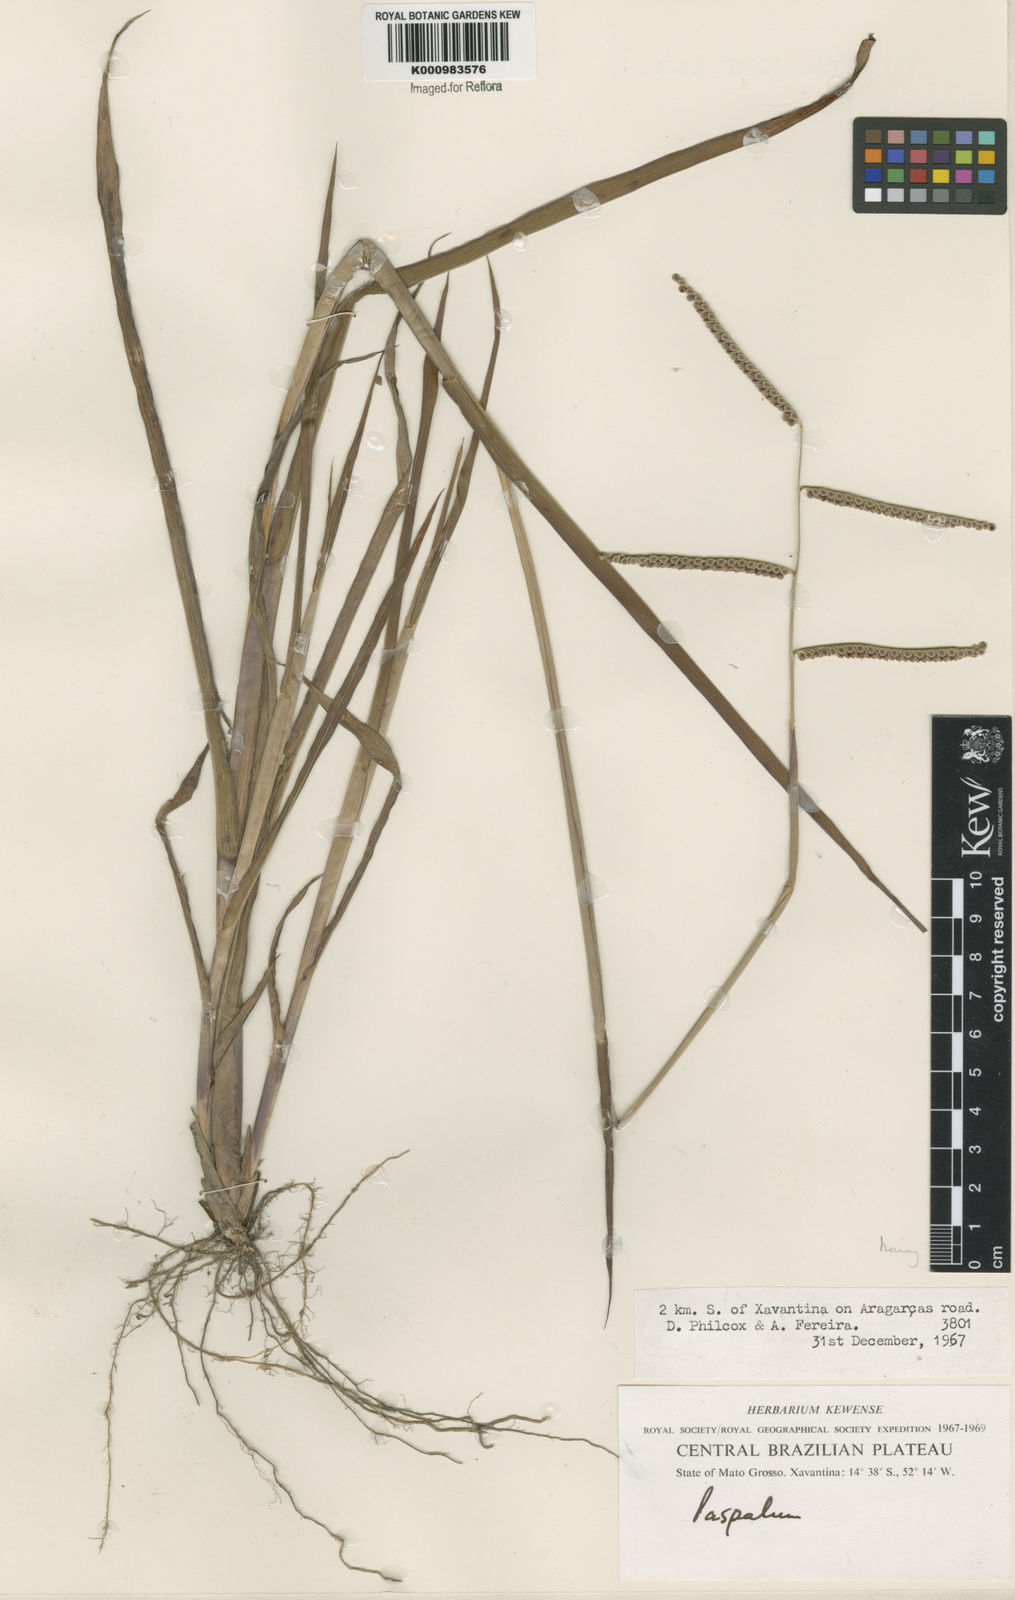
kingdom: Plantae
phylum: Tracheophyta
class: Liliopsida
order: Poales
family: Poaceae
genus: Paspalum
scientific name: Paspalum
